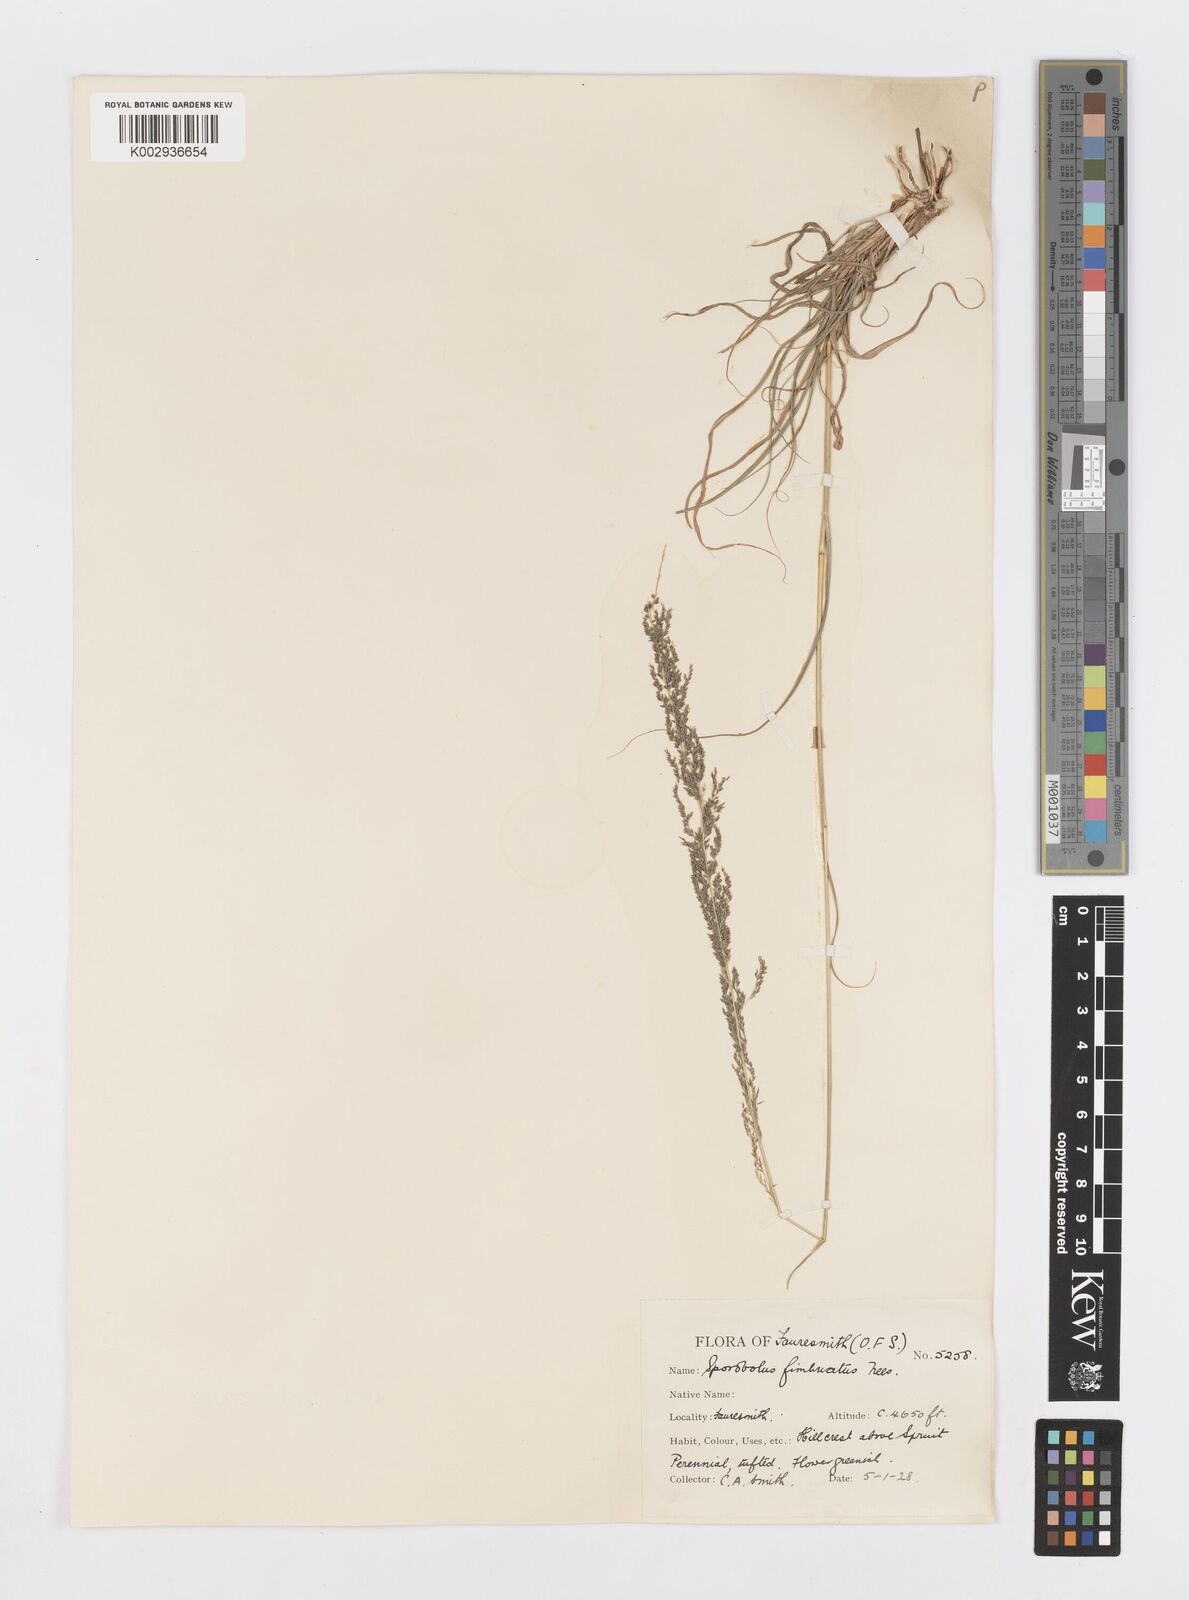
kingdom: Plantae
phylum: Tracheophyta
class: Liliopsida
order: Poales
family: Poaceae
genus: Sporobolus
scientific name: Sporobolus fimbriatus
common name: Fringed dropseed
